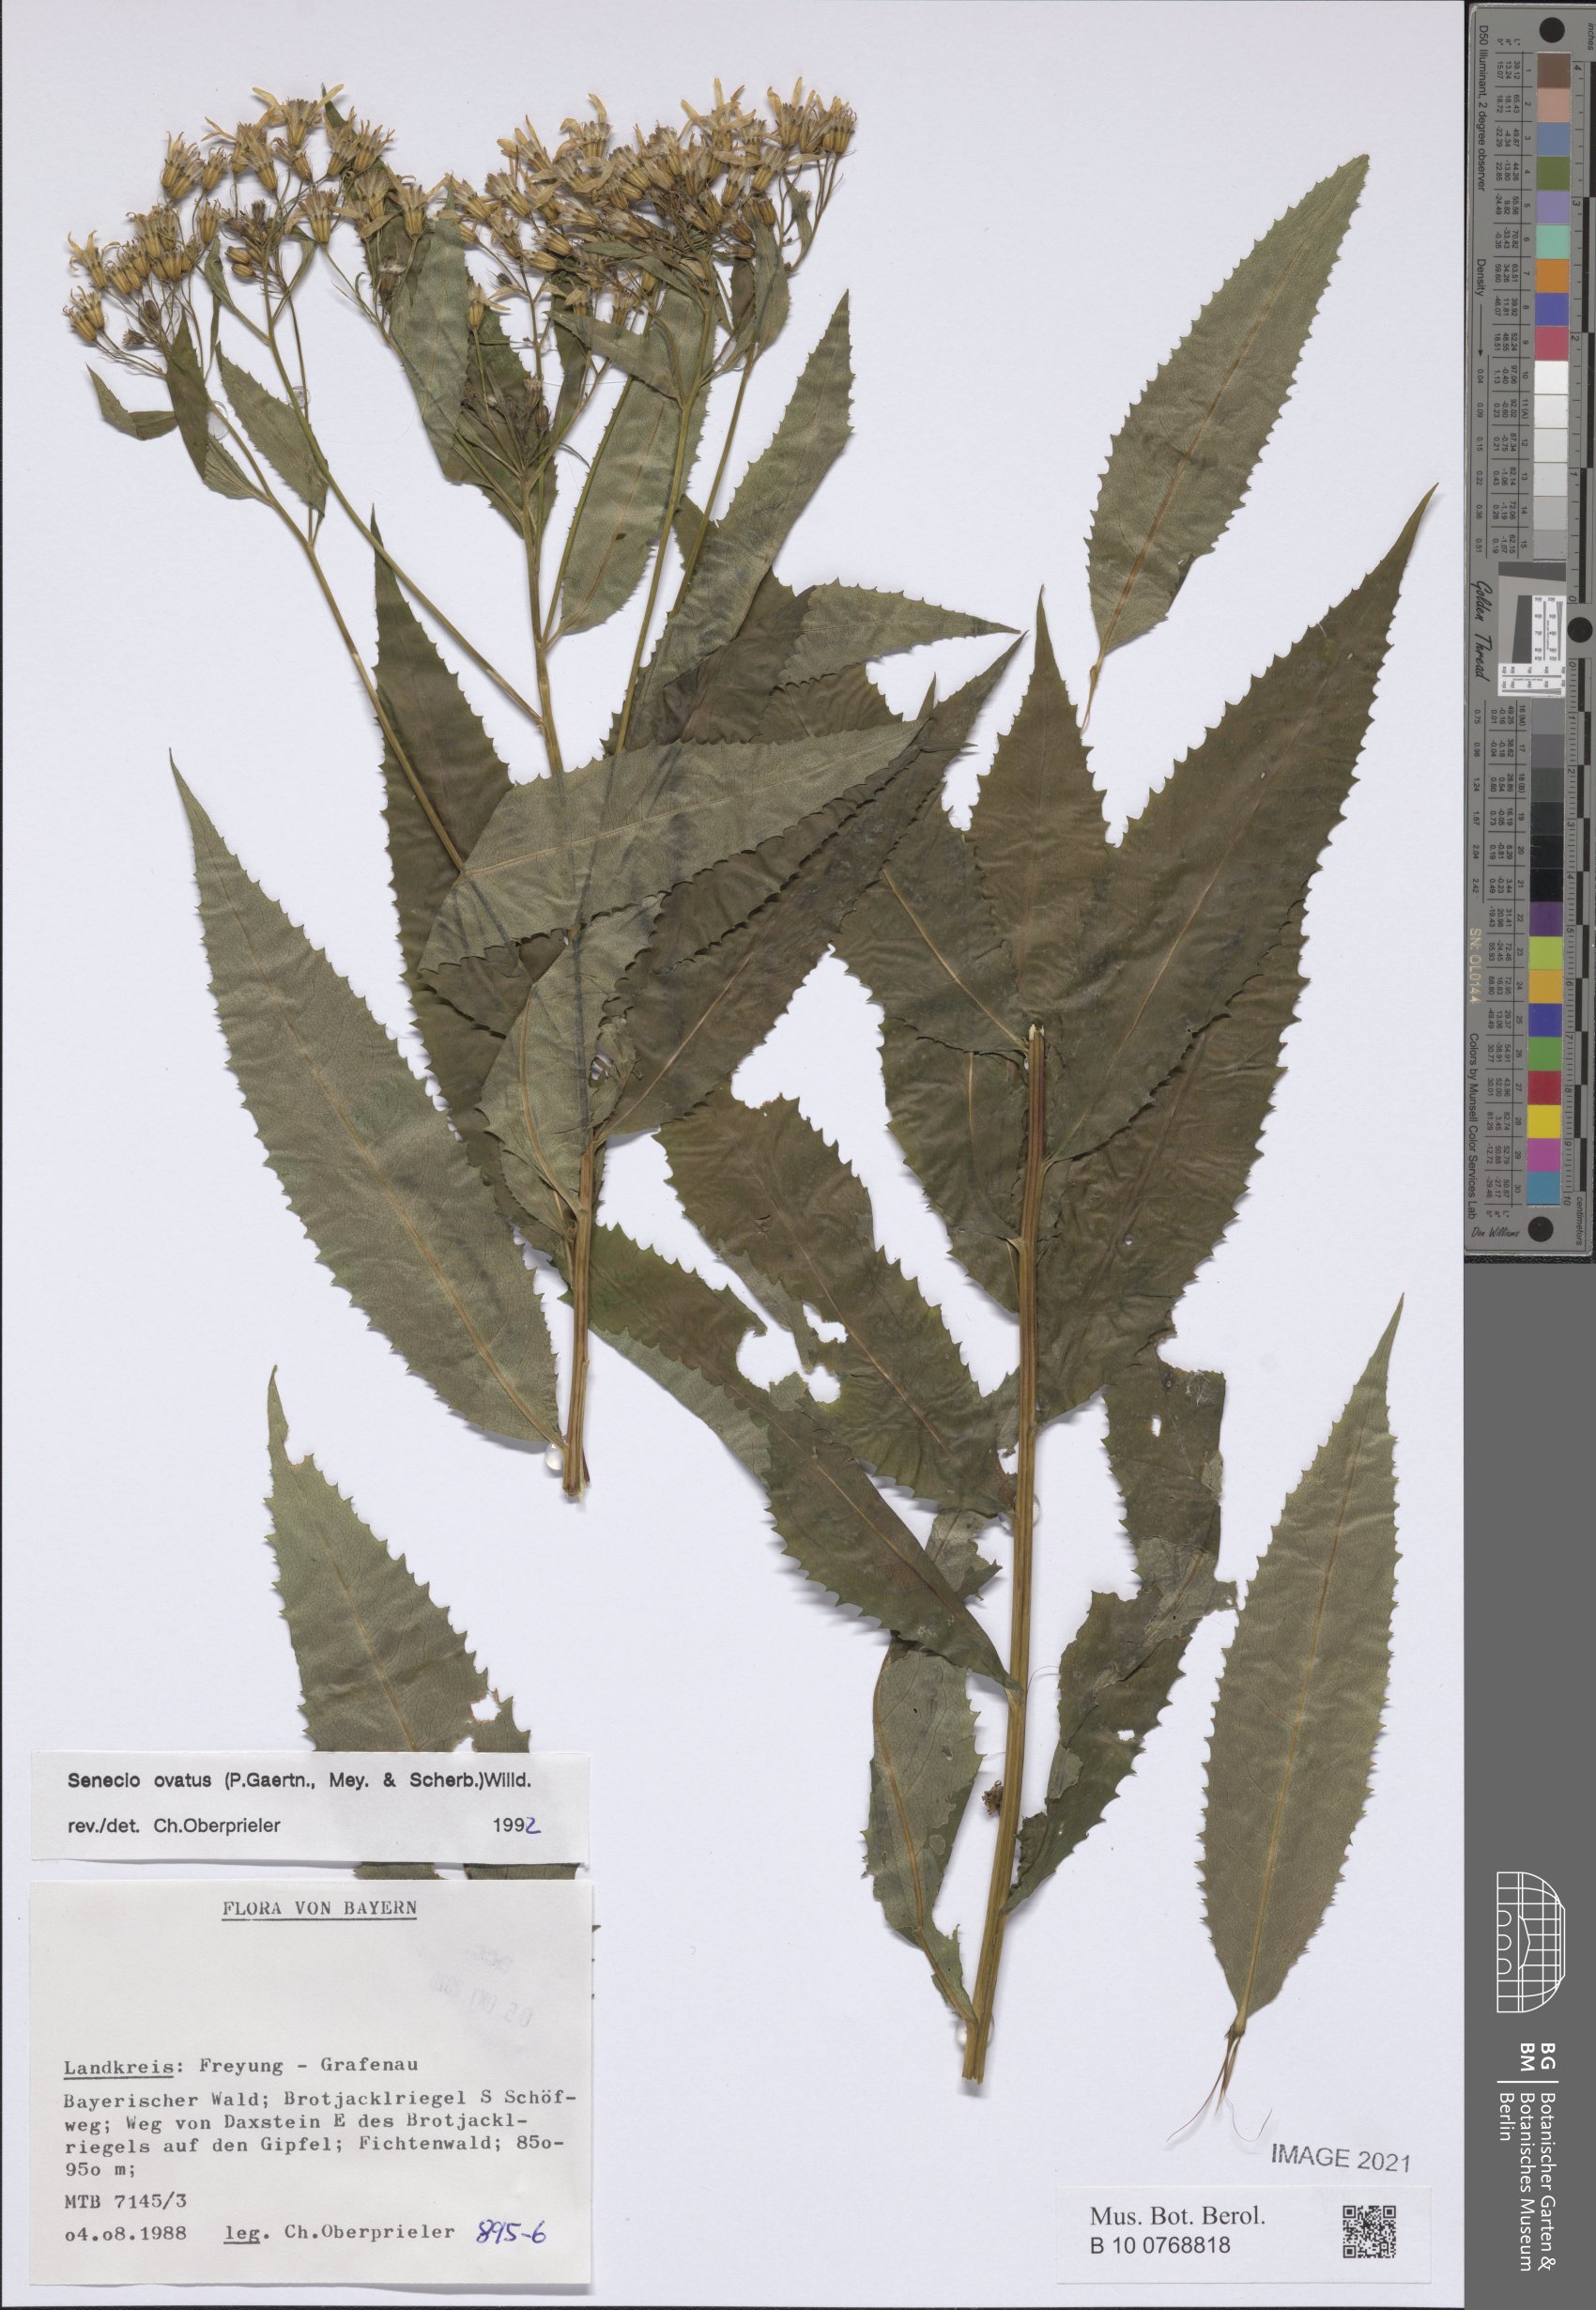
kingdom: Plantae
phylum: Tracheophyta
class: Magnoliopsida
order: Asterales
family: Asteraceae
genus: Senecio
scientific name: Senecio ovatus
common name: Wood ragwort
